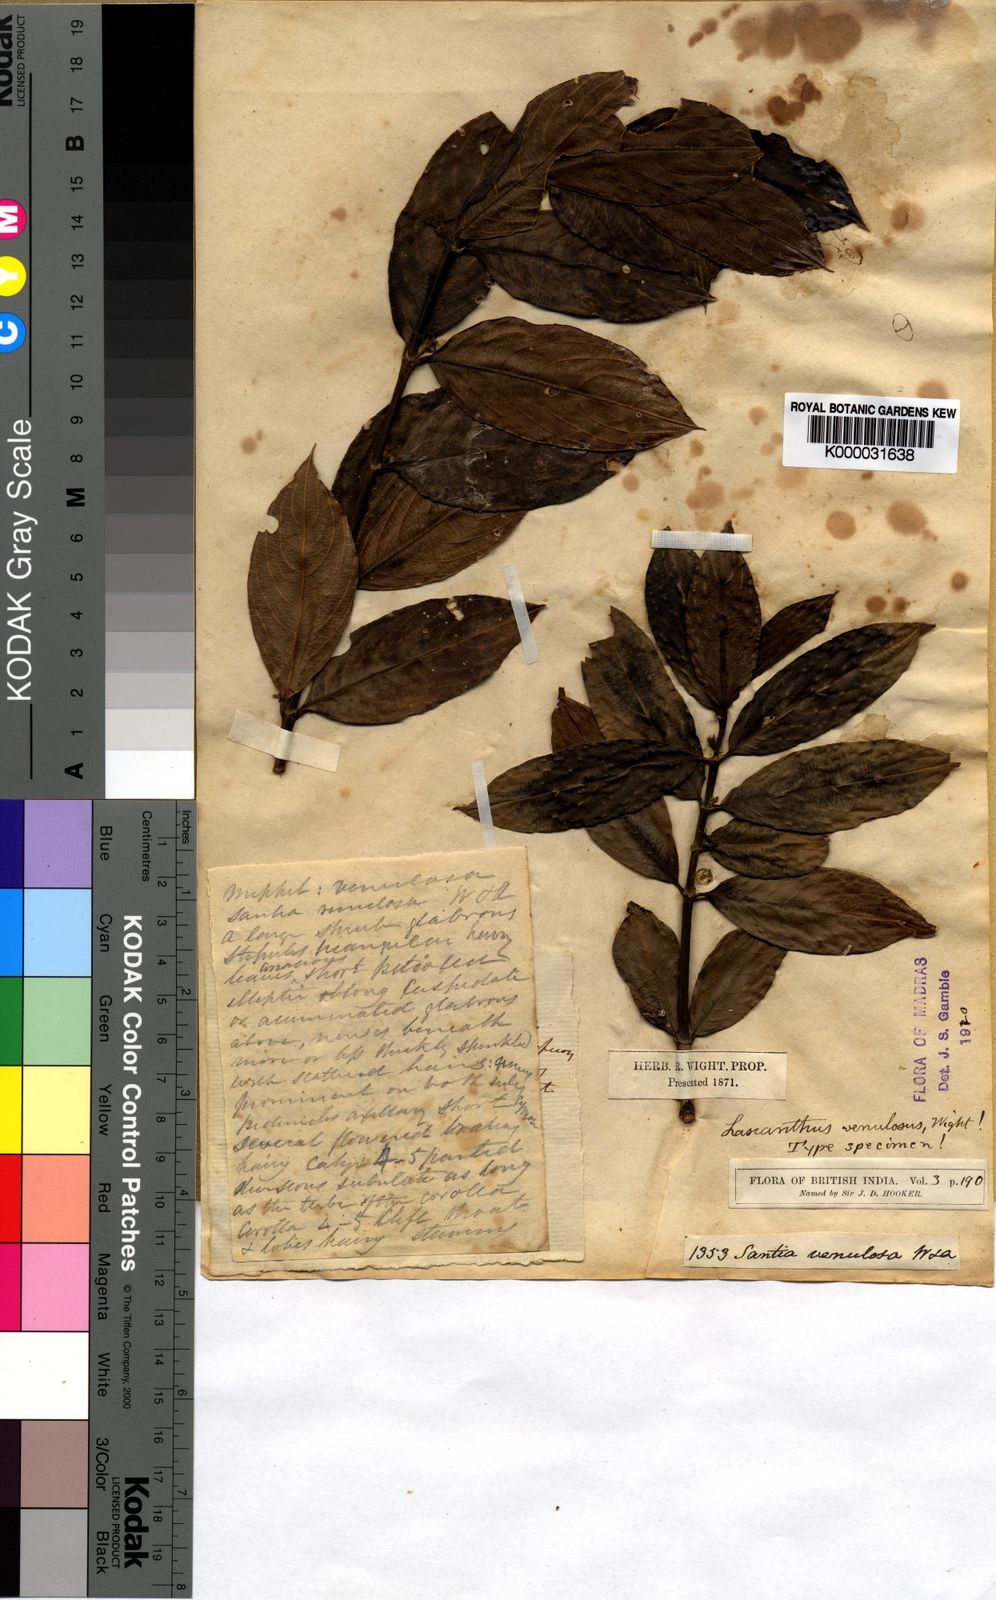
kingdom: Plantae
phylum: Tracheophyta
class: Magnoliopsida
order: Gentianales
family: Rubiaceae
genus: Lasianthus
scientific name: Lasianthus venulosus
